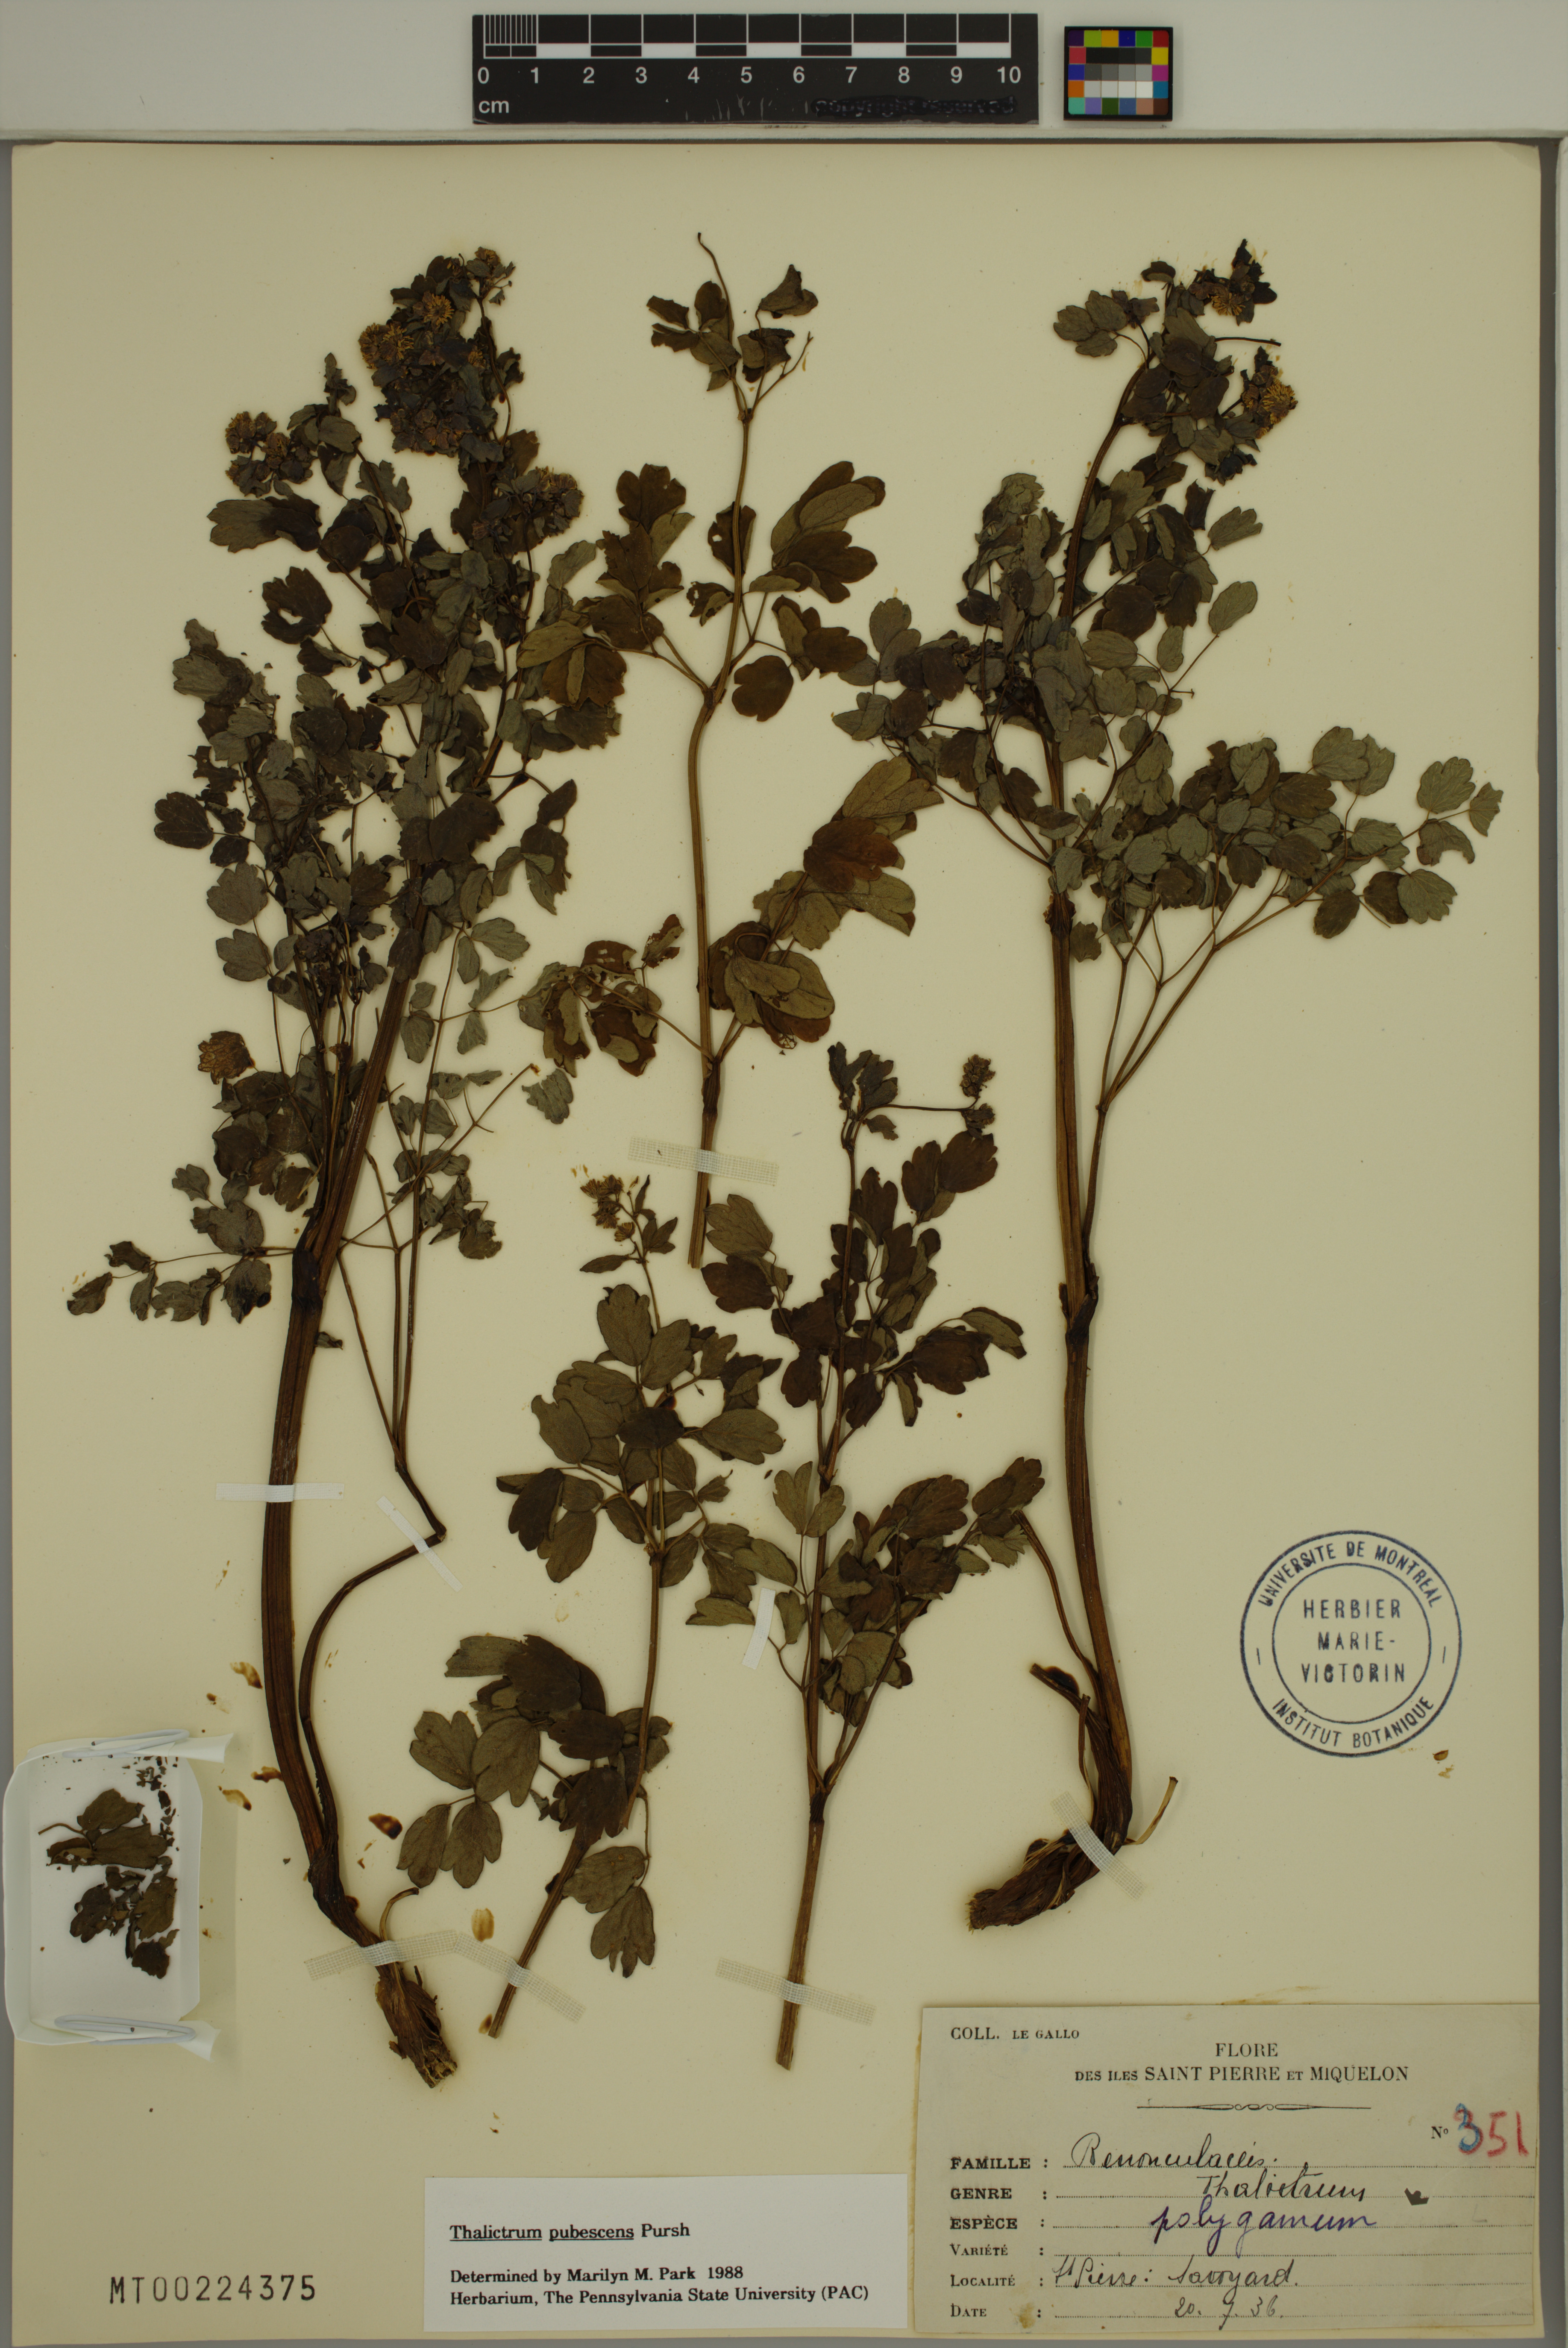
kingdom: Plantae
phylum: Tracheophyta
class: Magnoliopsida
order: Ranunculales
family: Ranunculaceae
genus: Thalictrum
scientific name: Thalictrum pubescens
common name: King-of-the-meadow
